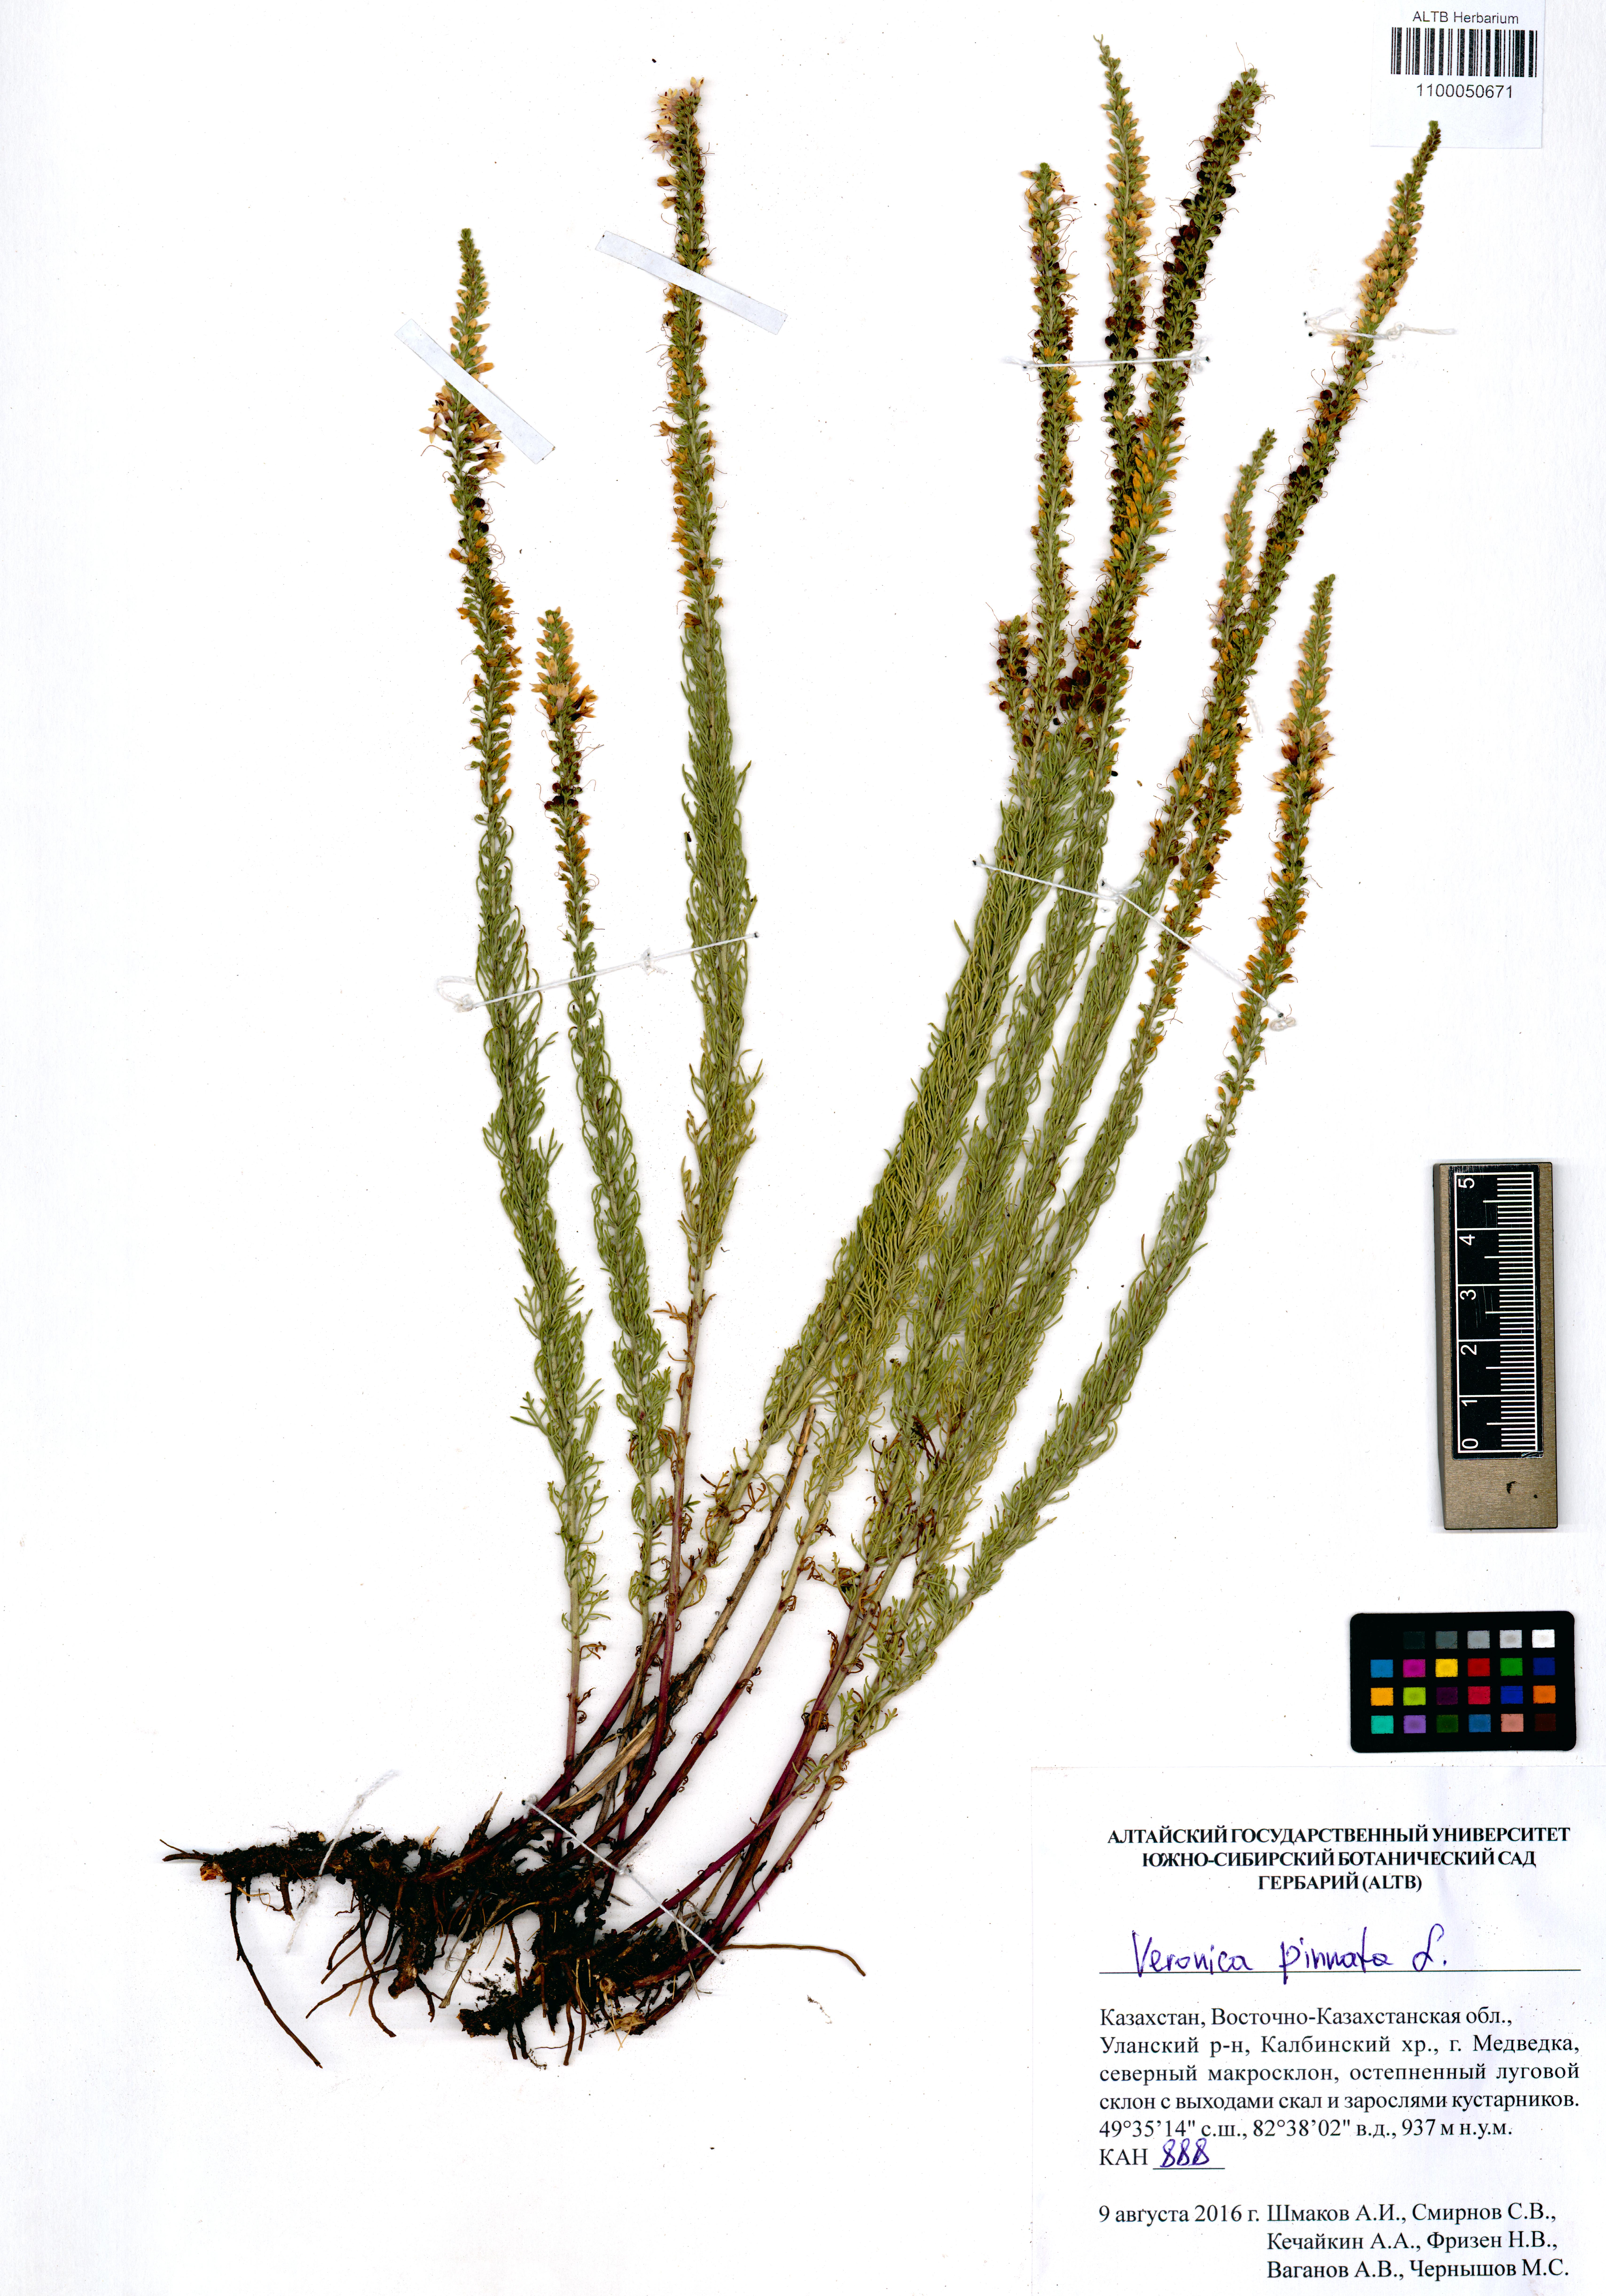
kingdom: Plantae
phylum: Tracheophyta
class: Magnoliopsida
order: Lamiales
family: Plantaginaceae
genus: Veronica
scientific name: Veronica pinnata
